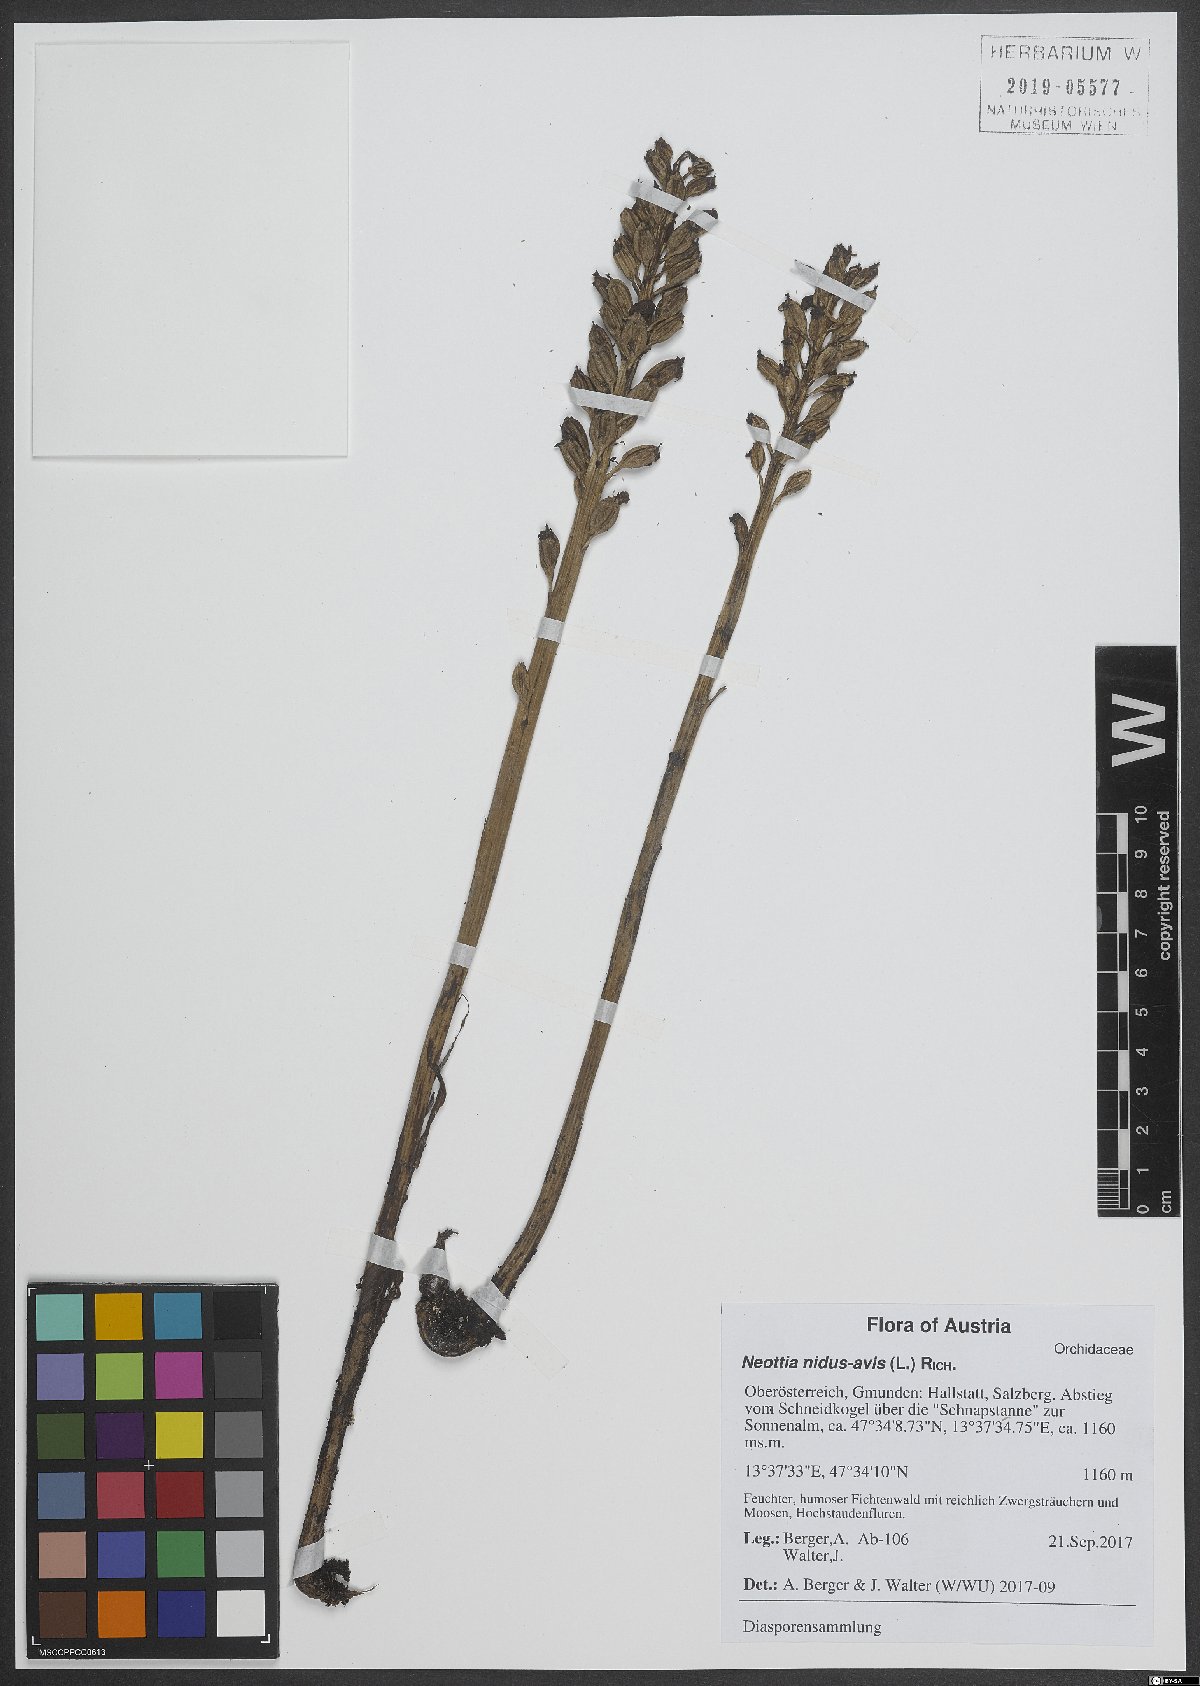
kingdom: Plantae
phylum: Tracheophyta
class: Liliopsida
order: Asparagales
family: Orchidaceae
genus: Neottia
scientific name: Neottia nidus-avis
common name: Bird's-nest orchid
